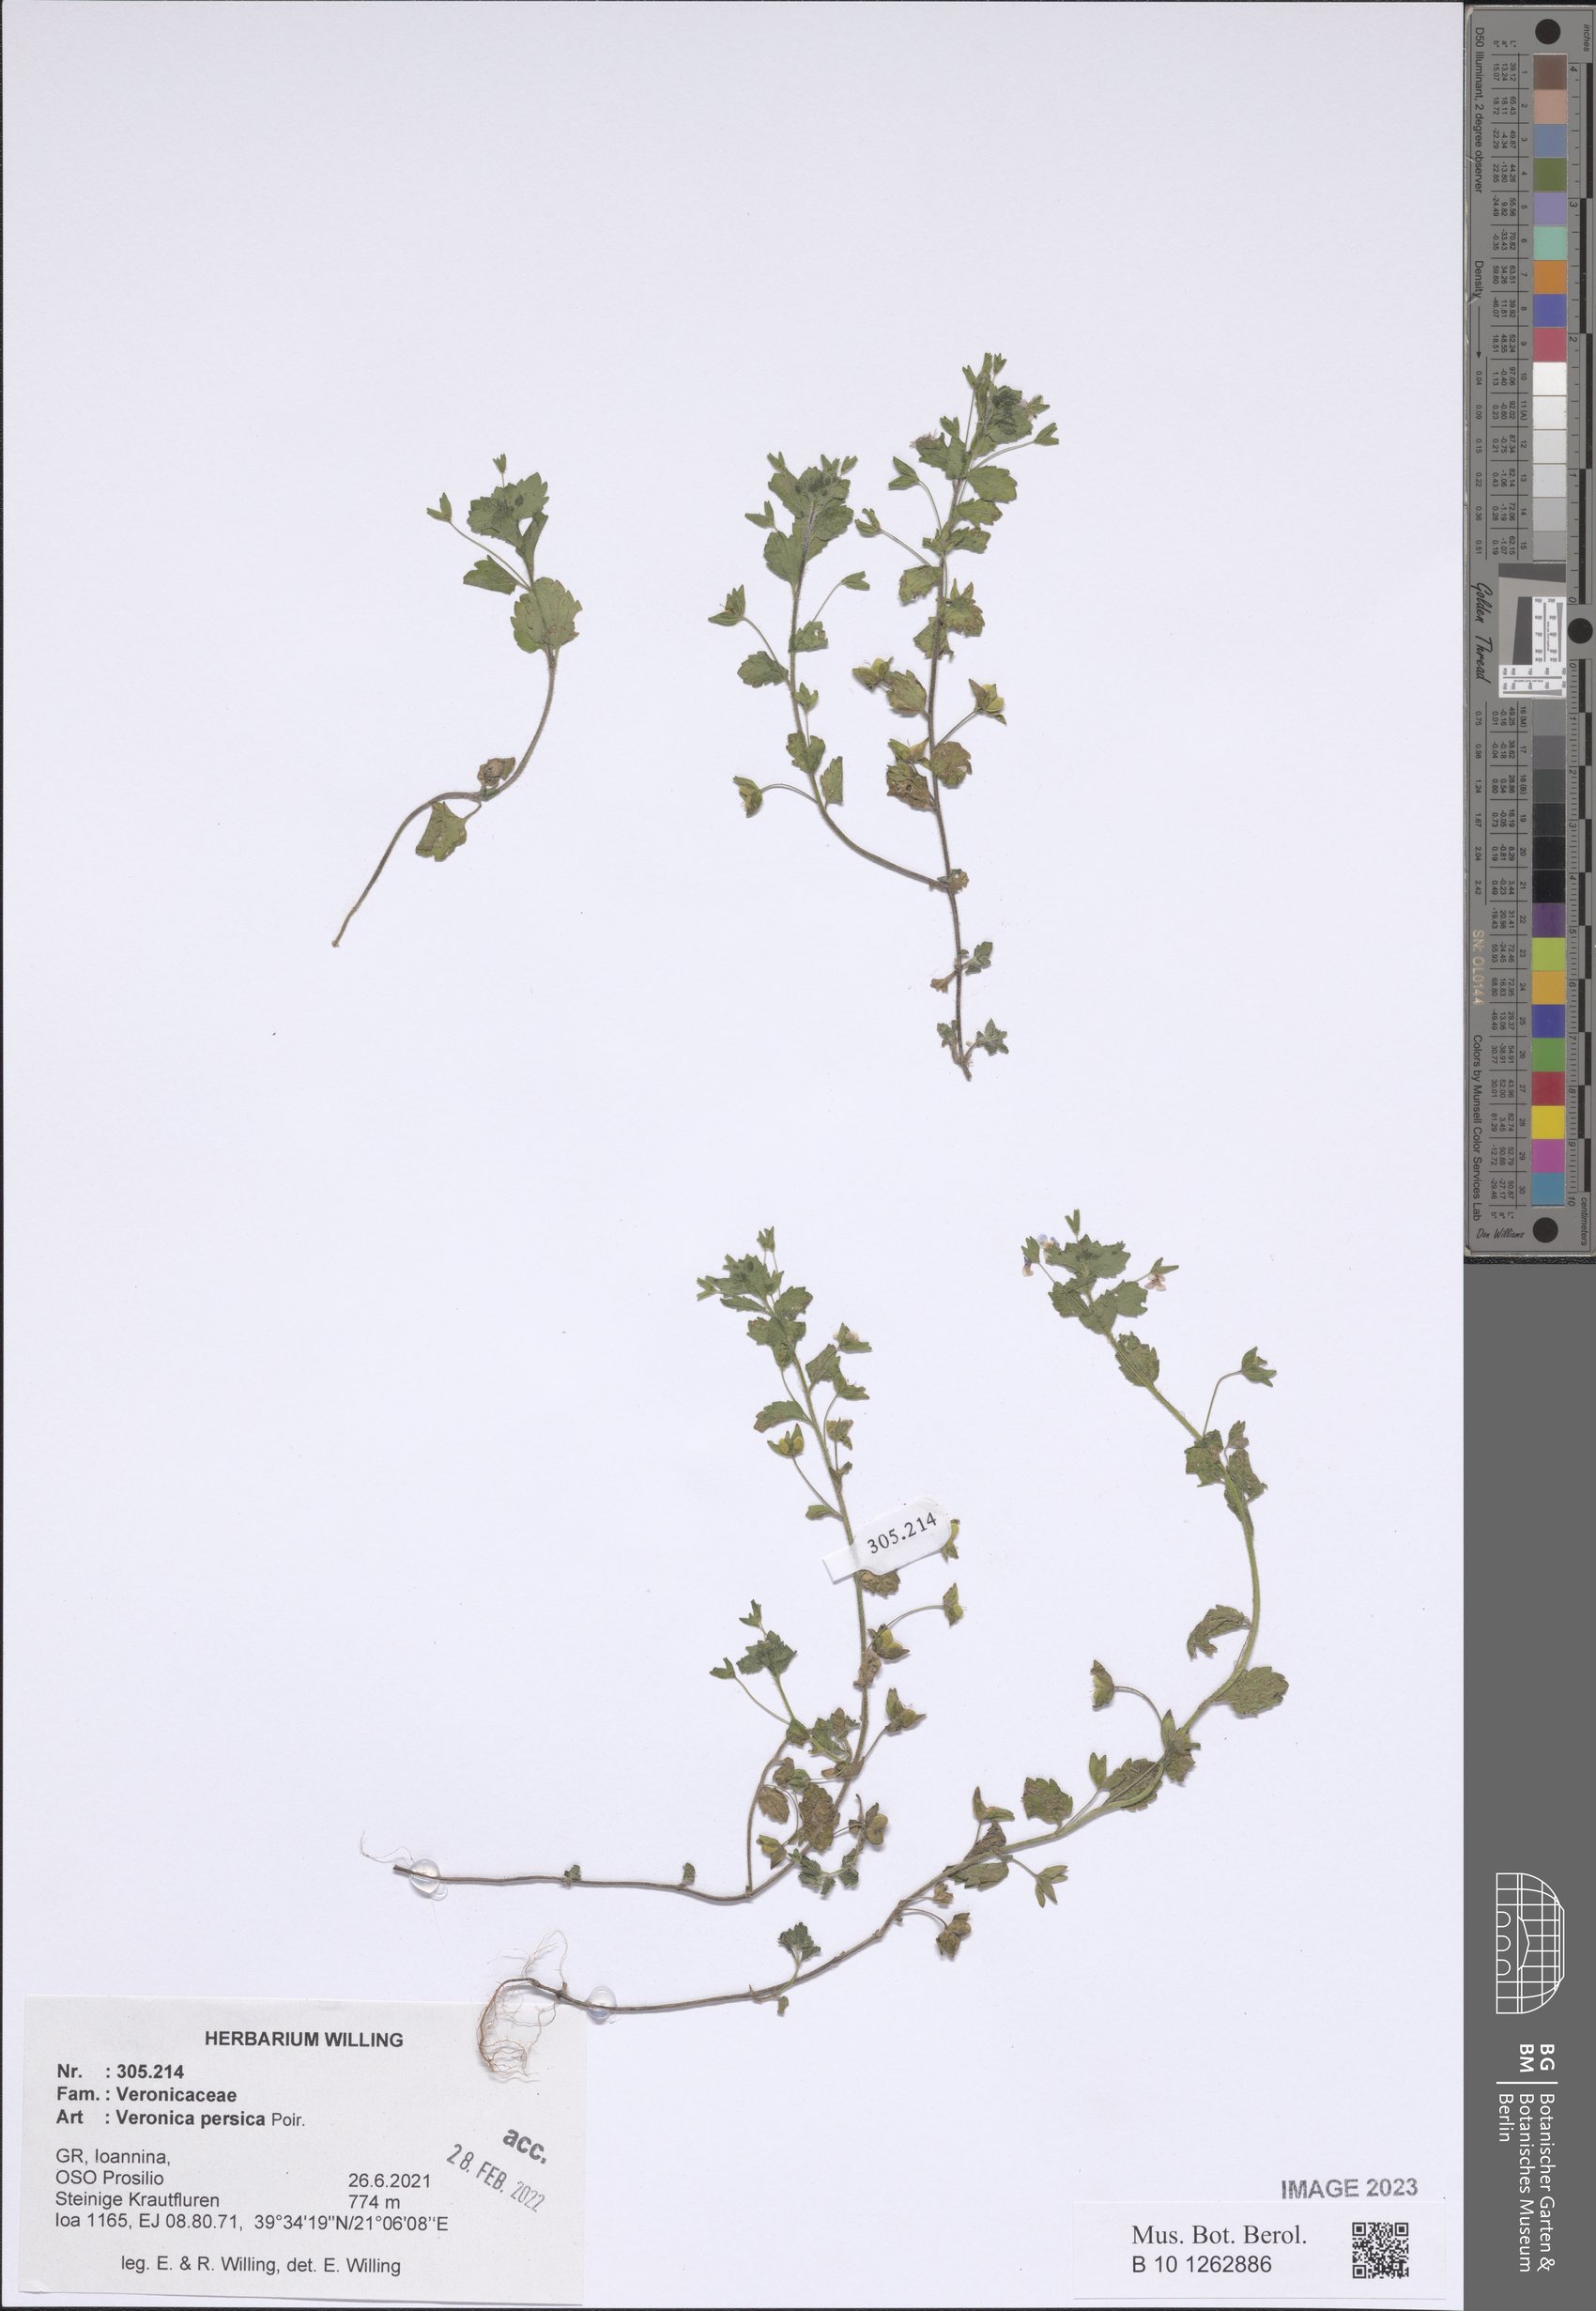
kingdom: Plantae
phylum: Tracheophyta
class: Magnoliopsida
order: Lamiales
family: Plantaginaceae
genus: Veronica
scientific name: Veronica persica
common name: Common field-speedwell
